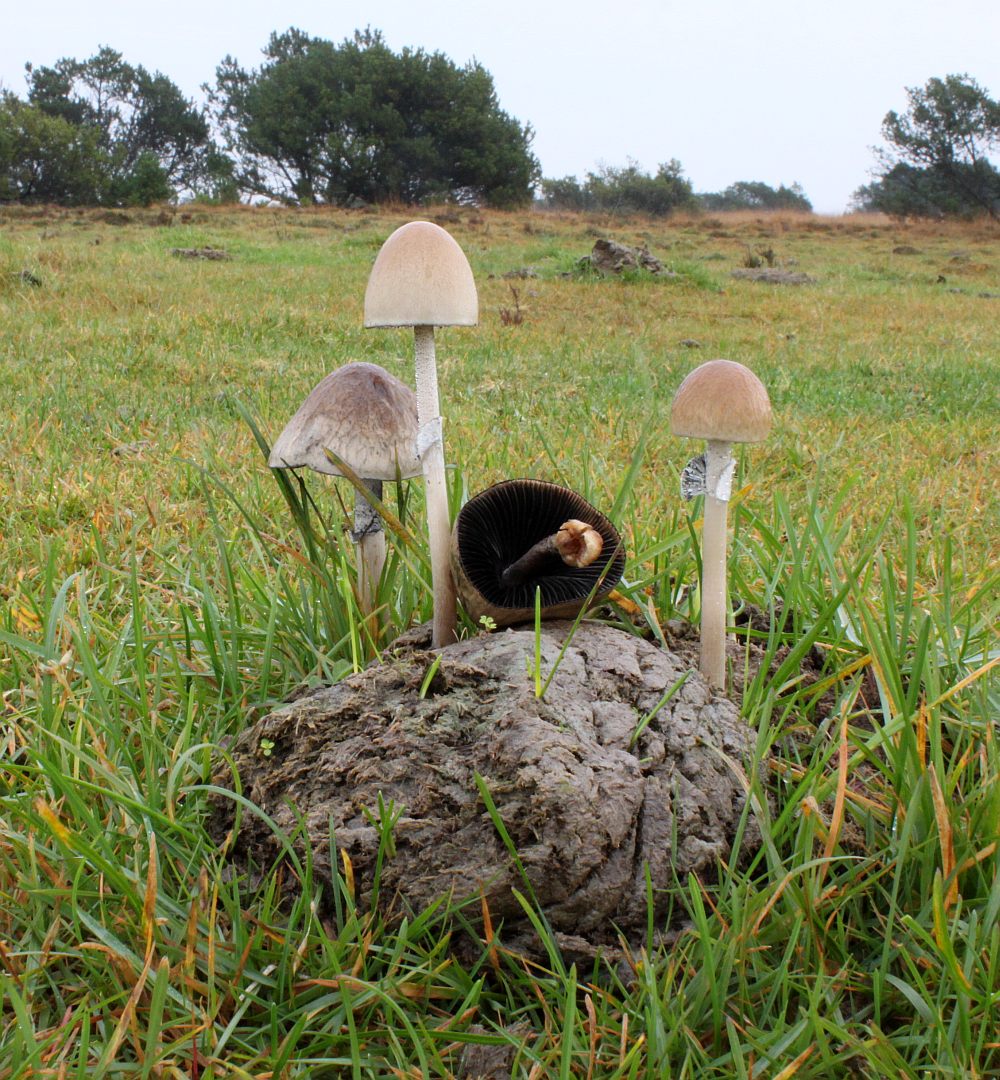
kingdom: Fungi
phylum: Basidiomycota
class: Agaricomycetes
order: Agaricales
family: Bolbitiaceae
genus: Panaeolus
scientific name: Panaeolus semiovatus
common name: ring-glanshat
